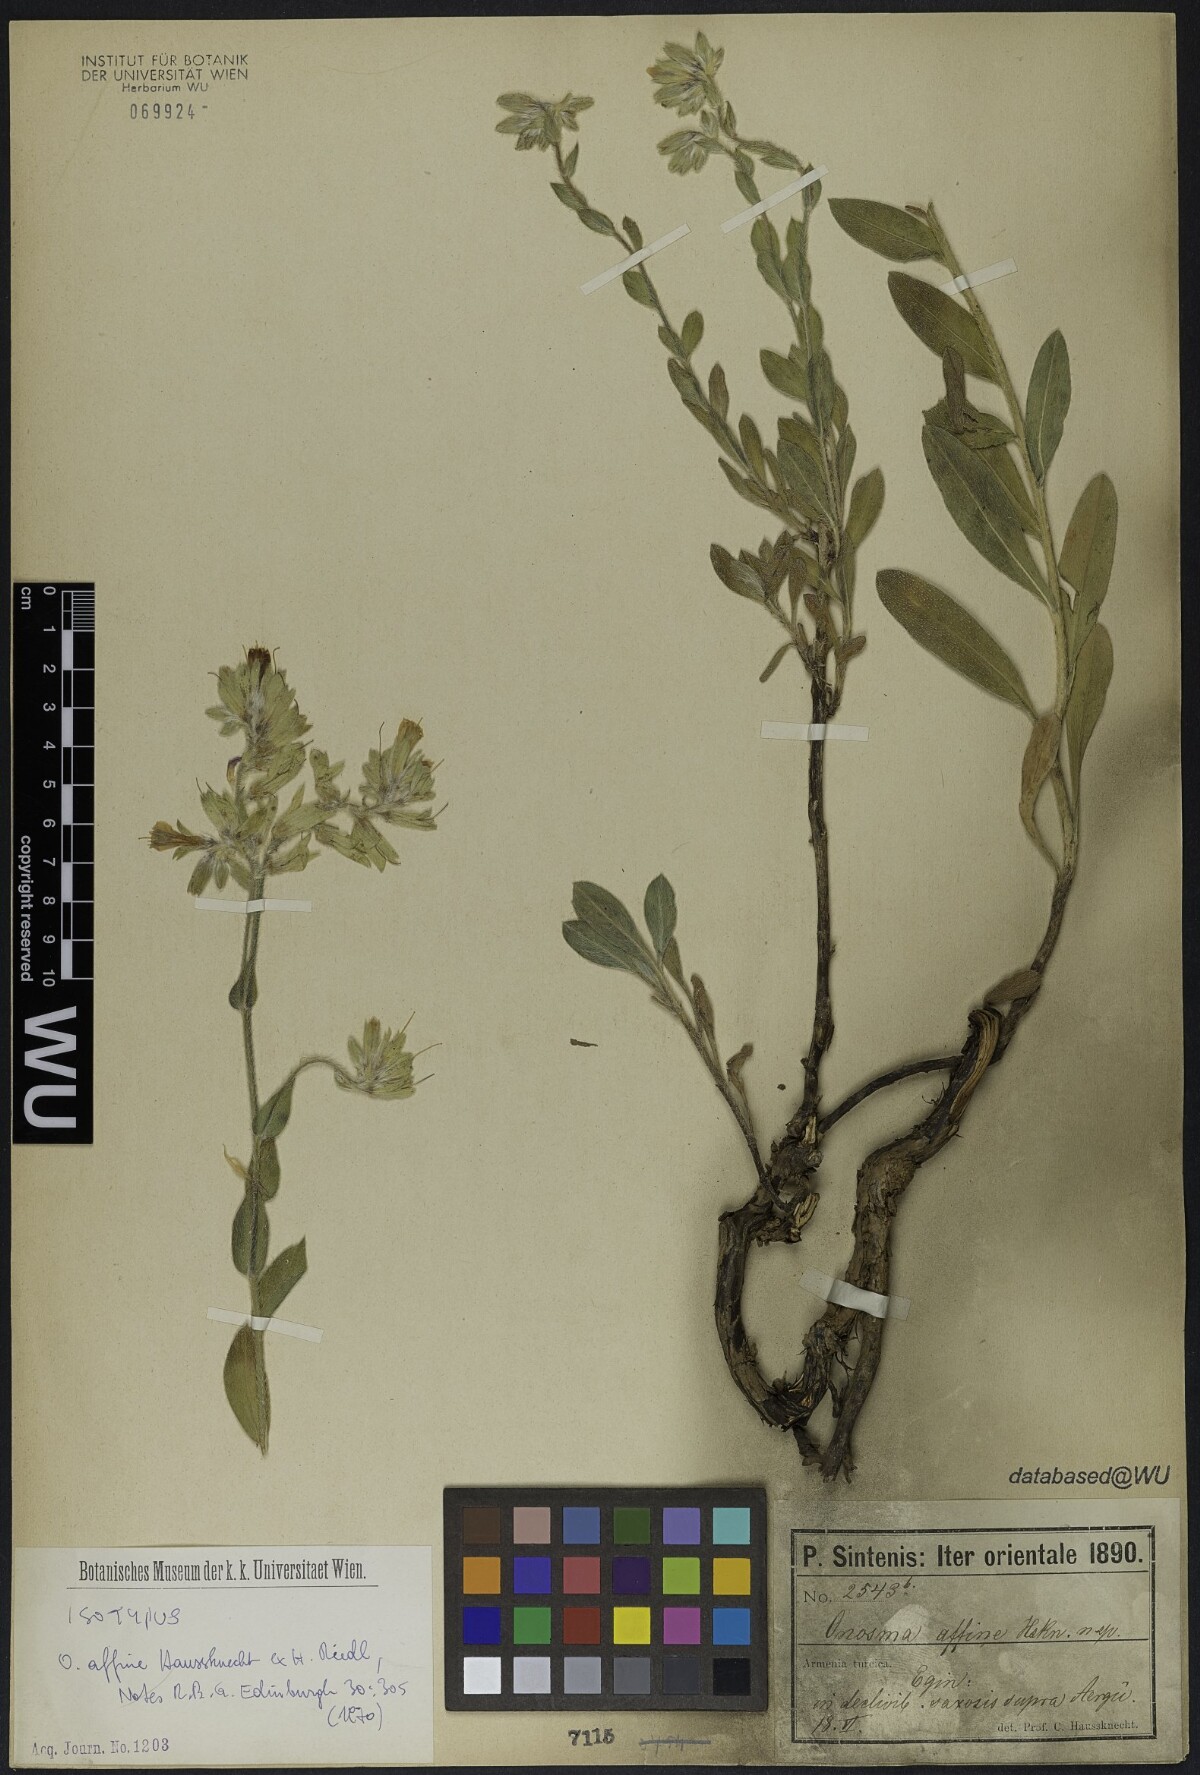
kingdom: Plantae
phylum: Tracheophyta
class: Magnoliopsida
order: Boraginales
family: Boraginaceae
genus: Onosma
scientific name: Onosma affinis
